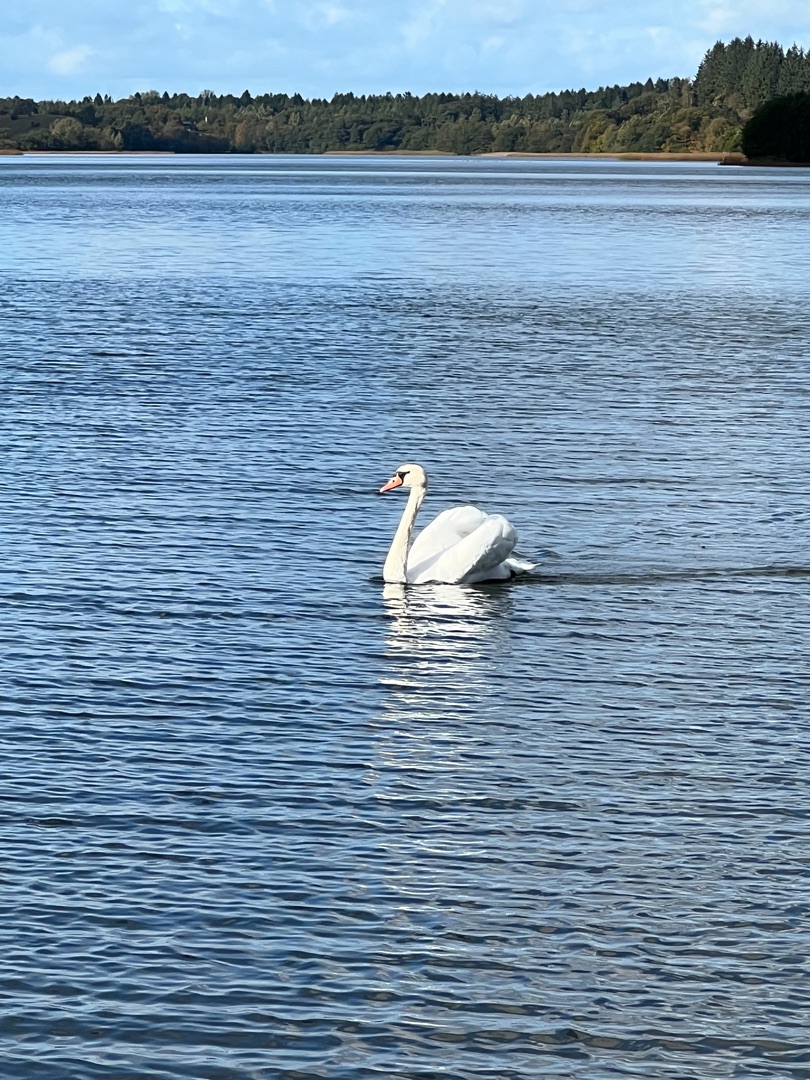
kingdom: Animalia
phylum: Chordata
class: Aves
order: Anseriformes
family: Anatidae
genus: Cygnus
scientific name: Cygnus olor
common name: Knopsvane
